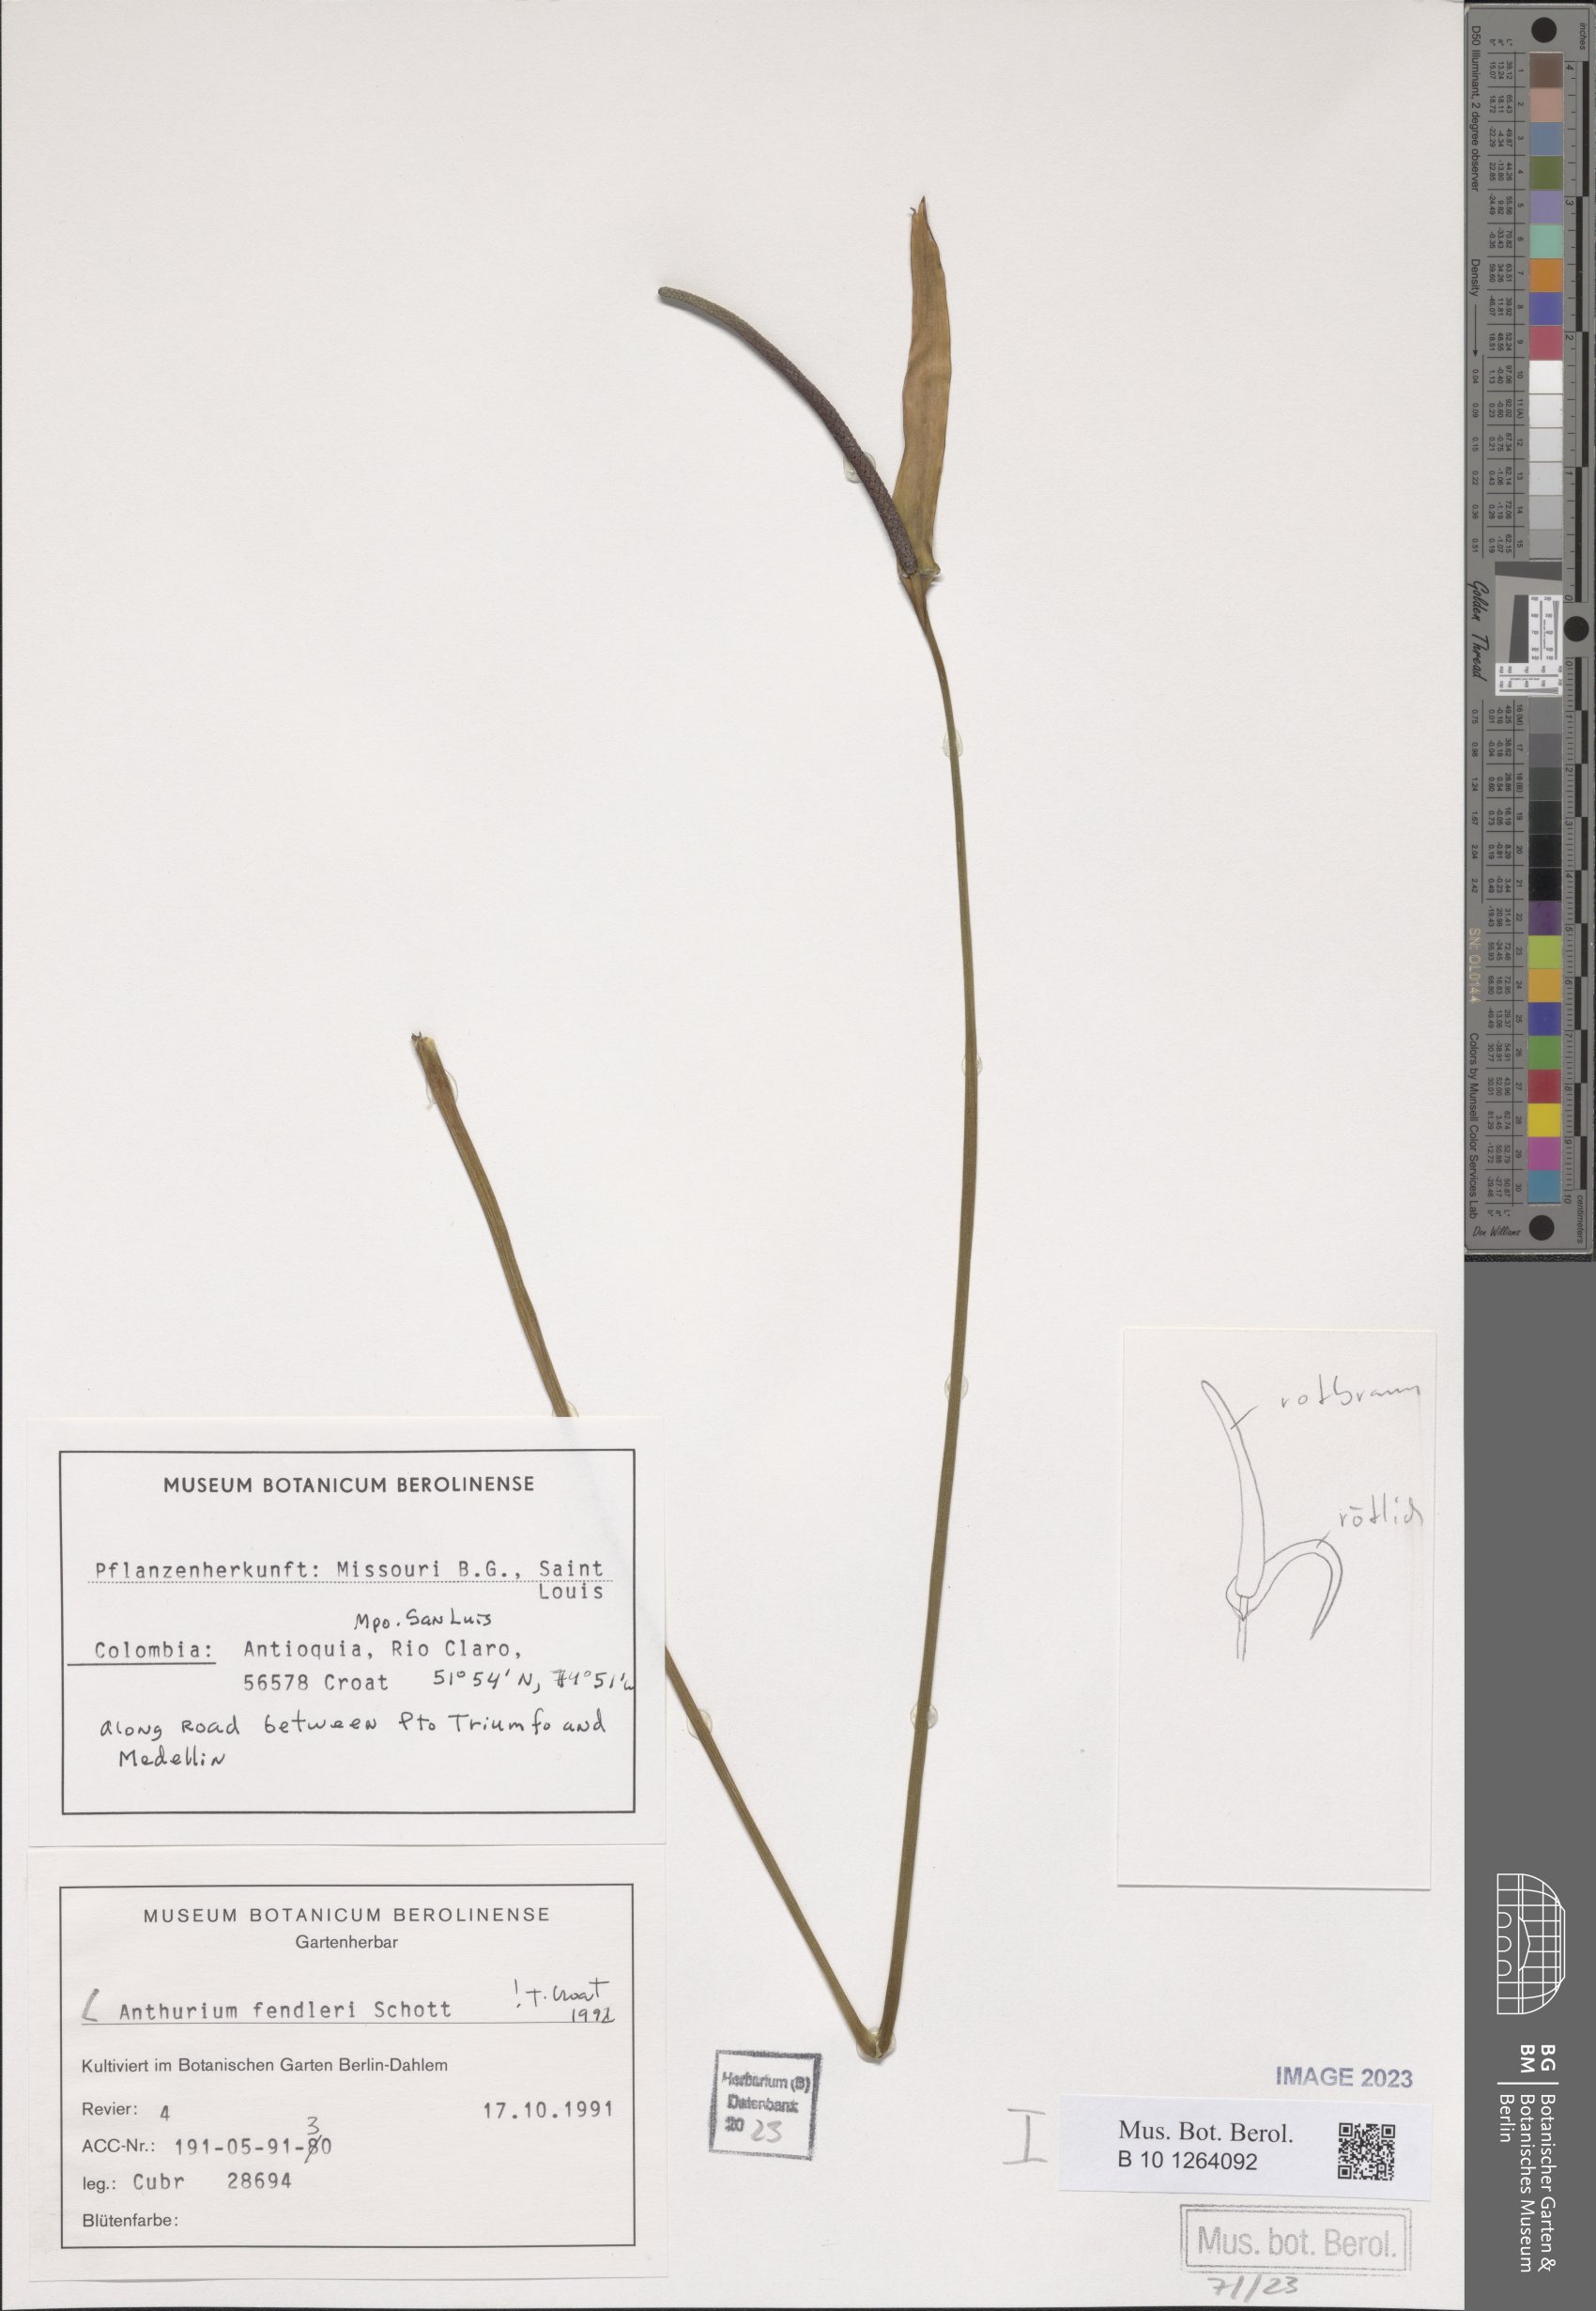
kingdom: Plantae
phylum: Tracheophyta
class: Liliopsida
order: Alismatales
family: Araceae
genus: Anthurium
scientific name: Anthurium fendleri
